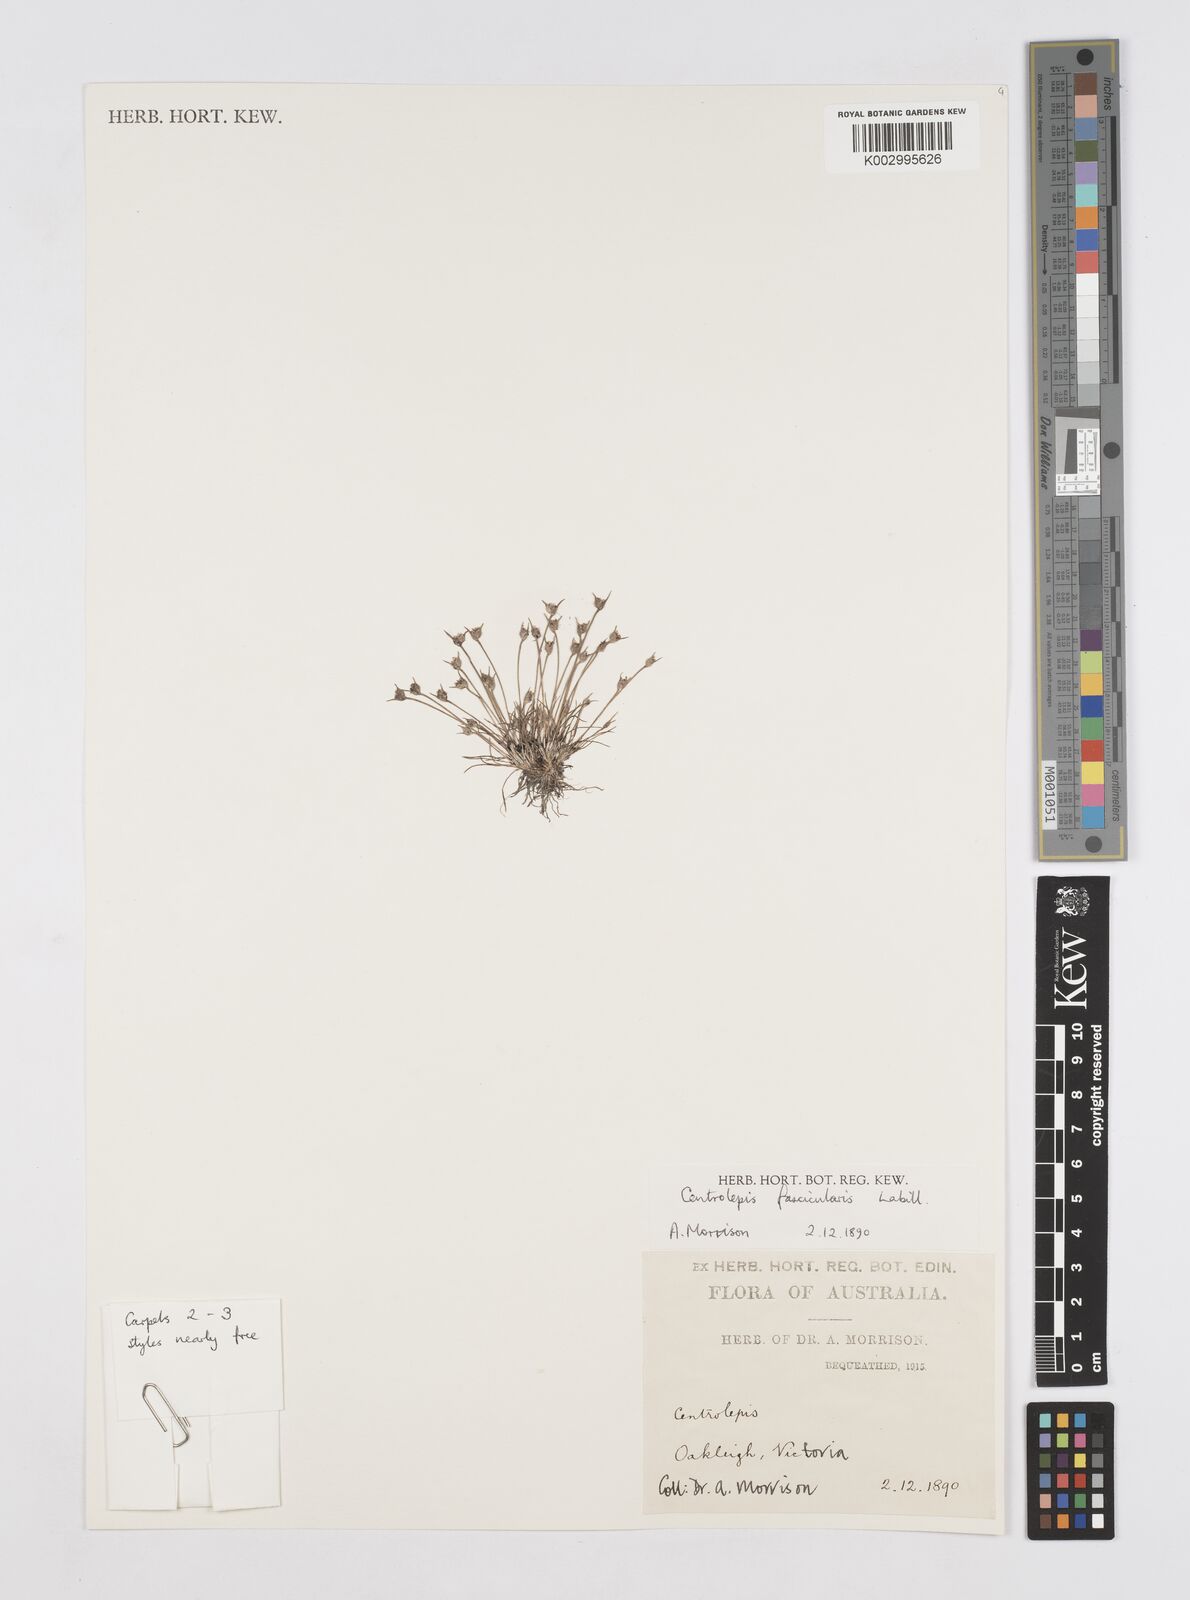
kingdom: Plantae
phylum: Tracheophyta
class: Liliopsida
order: Poales
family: Restionaceae
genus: Centrolepis
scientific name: Centrolepis fascicularis
